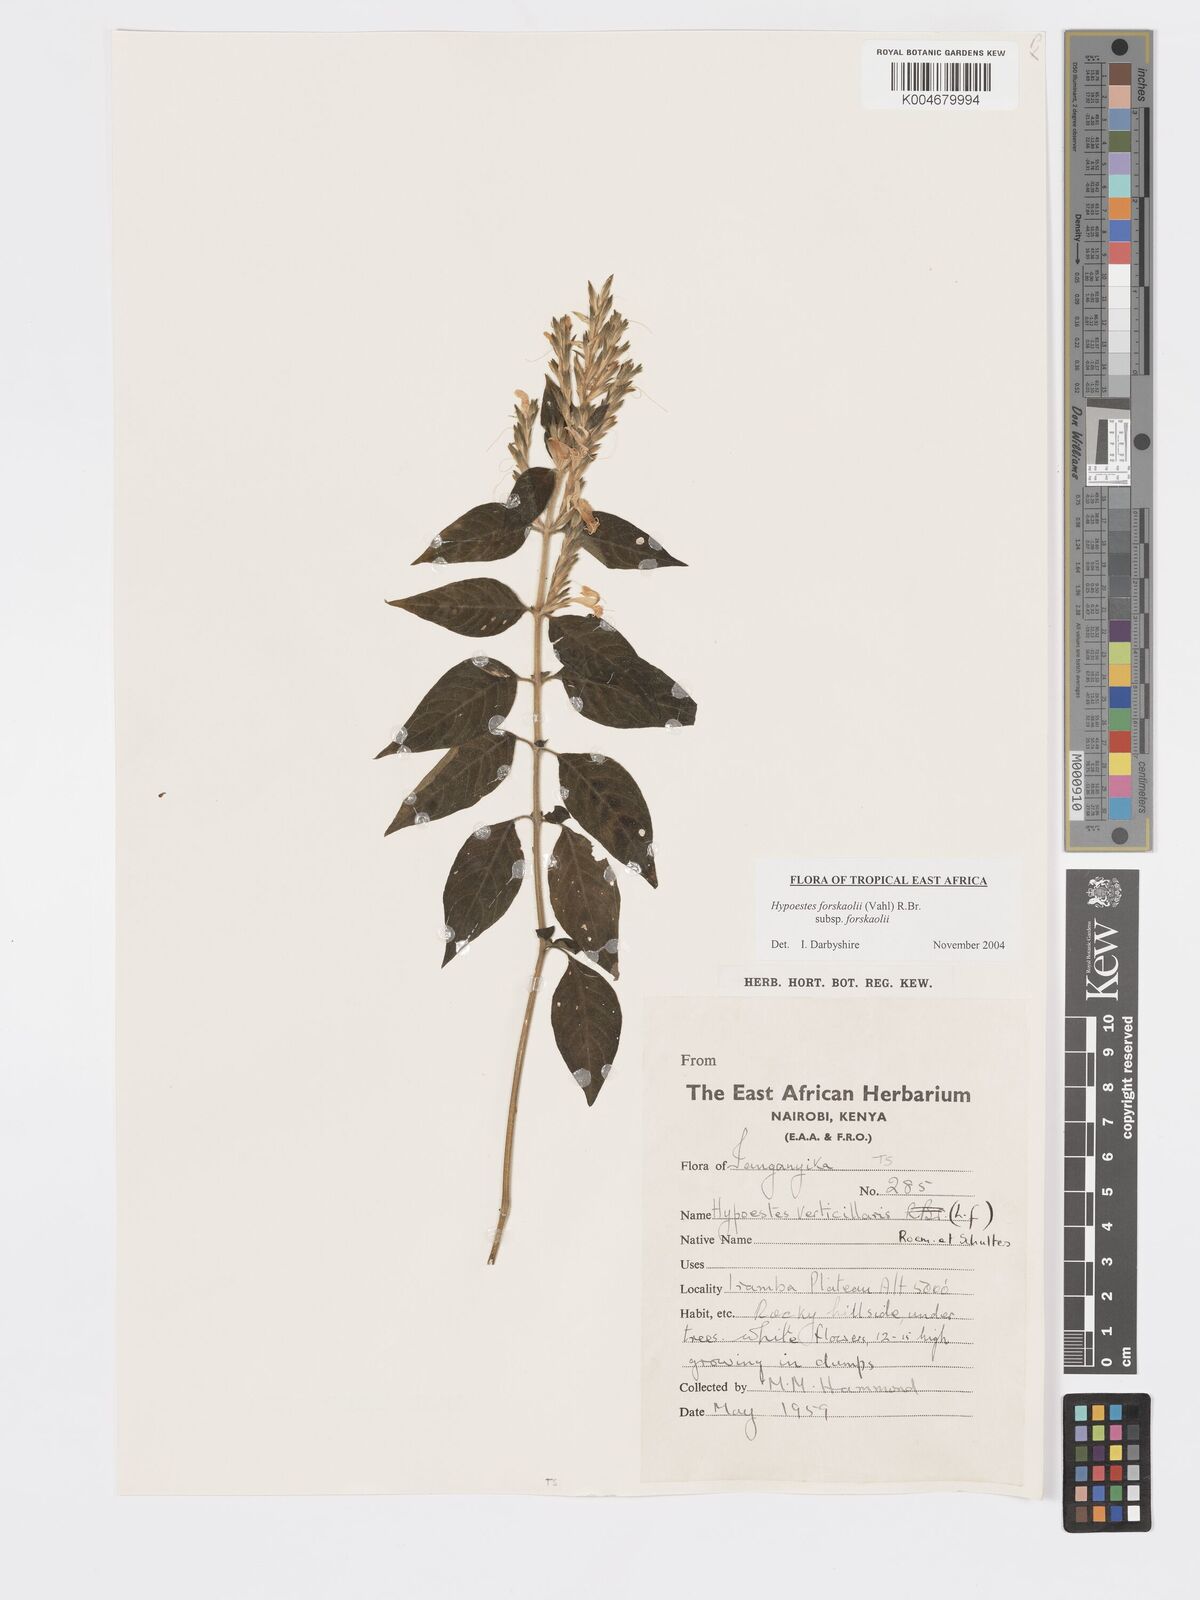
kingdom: Plantae
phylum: Tracheophyta
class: Magnoliopsida
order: Lamiales
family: Acanthaceae
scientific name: Acanthaceae
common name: Acanthaceae
